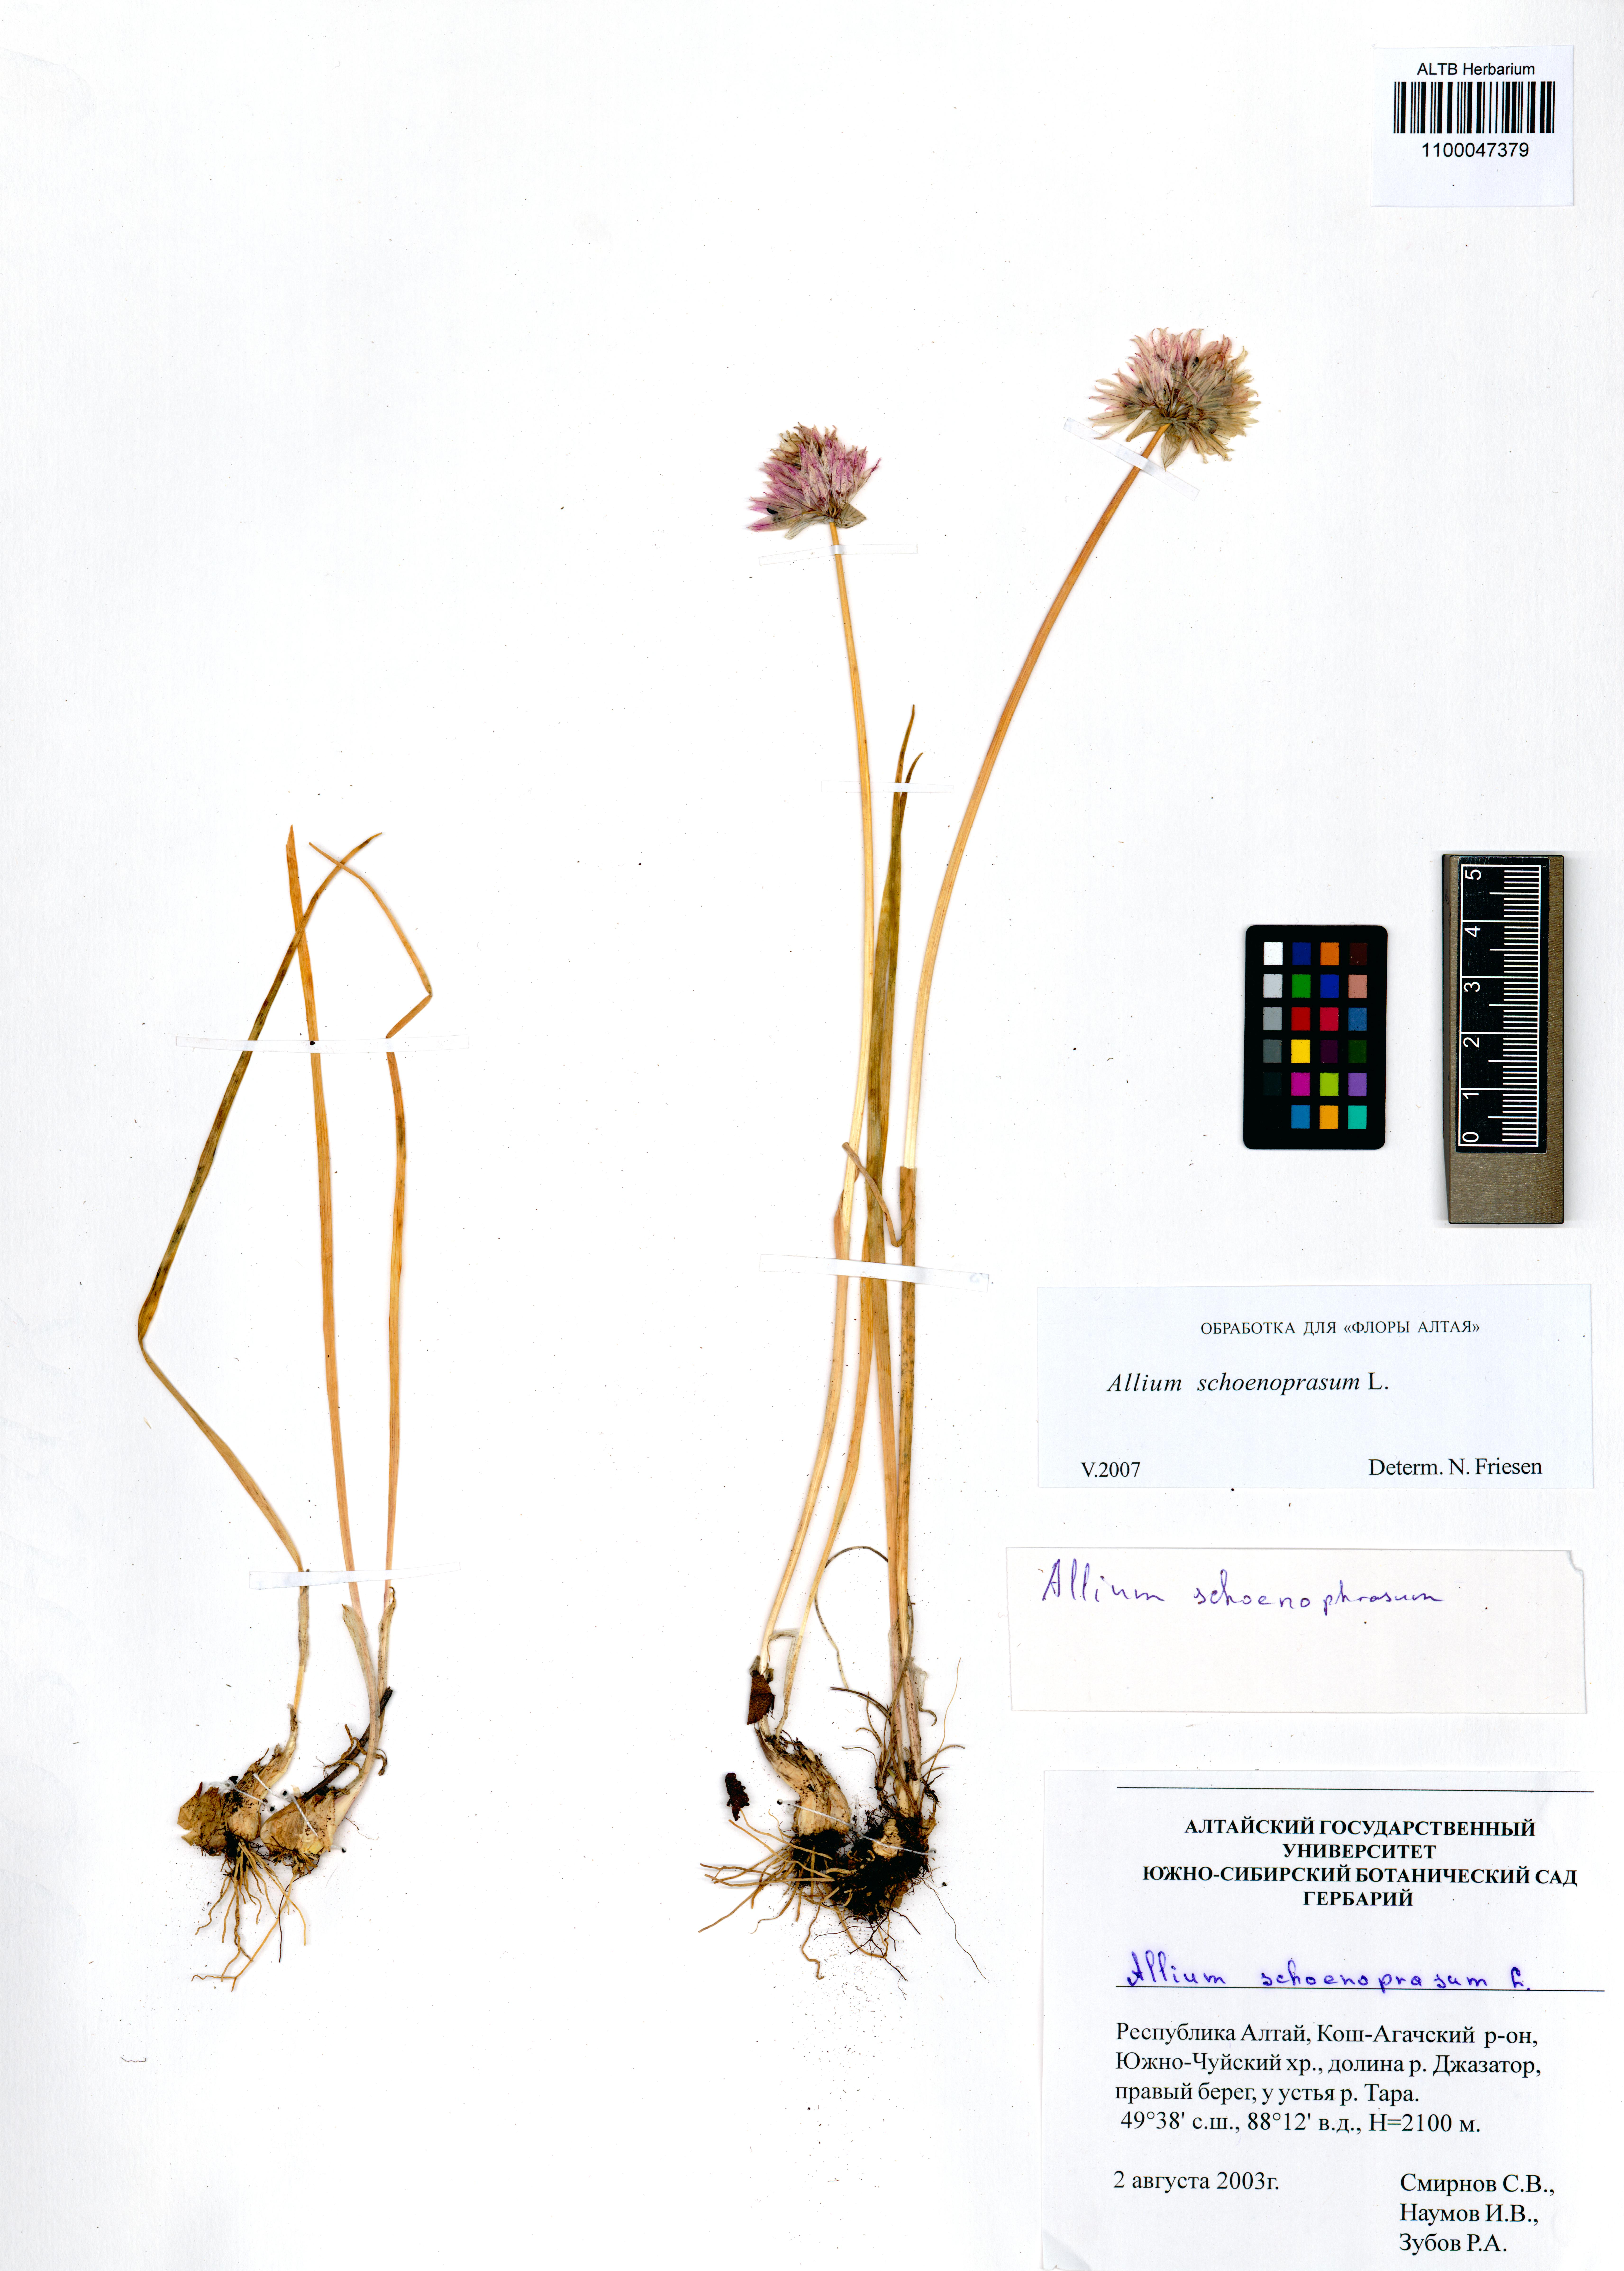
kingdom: Plantae
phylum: Tracheophyta
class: Liliopsida
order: Asparagales
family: Amaryllidaceae
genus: Allium
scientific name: Allium schoenoprasum
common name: Chives
